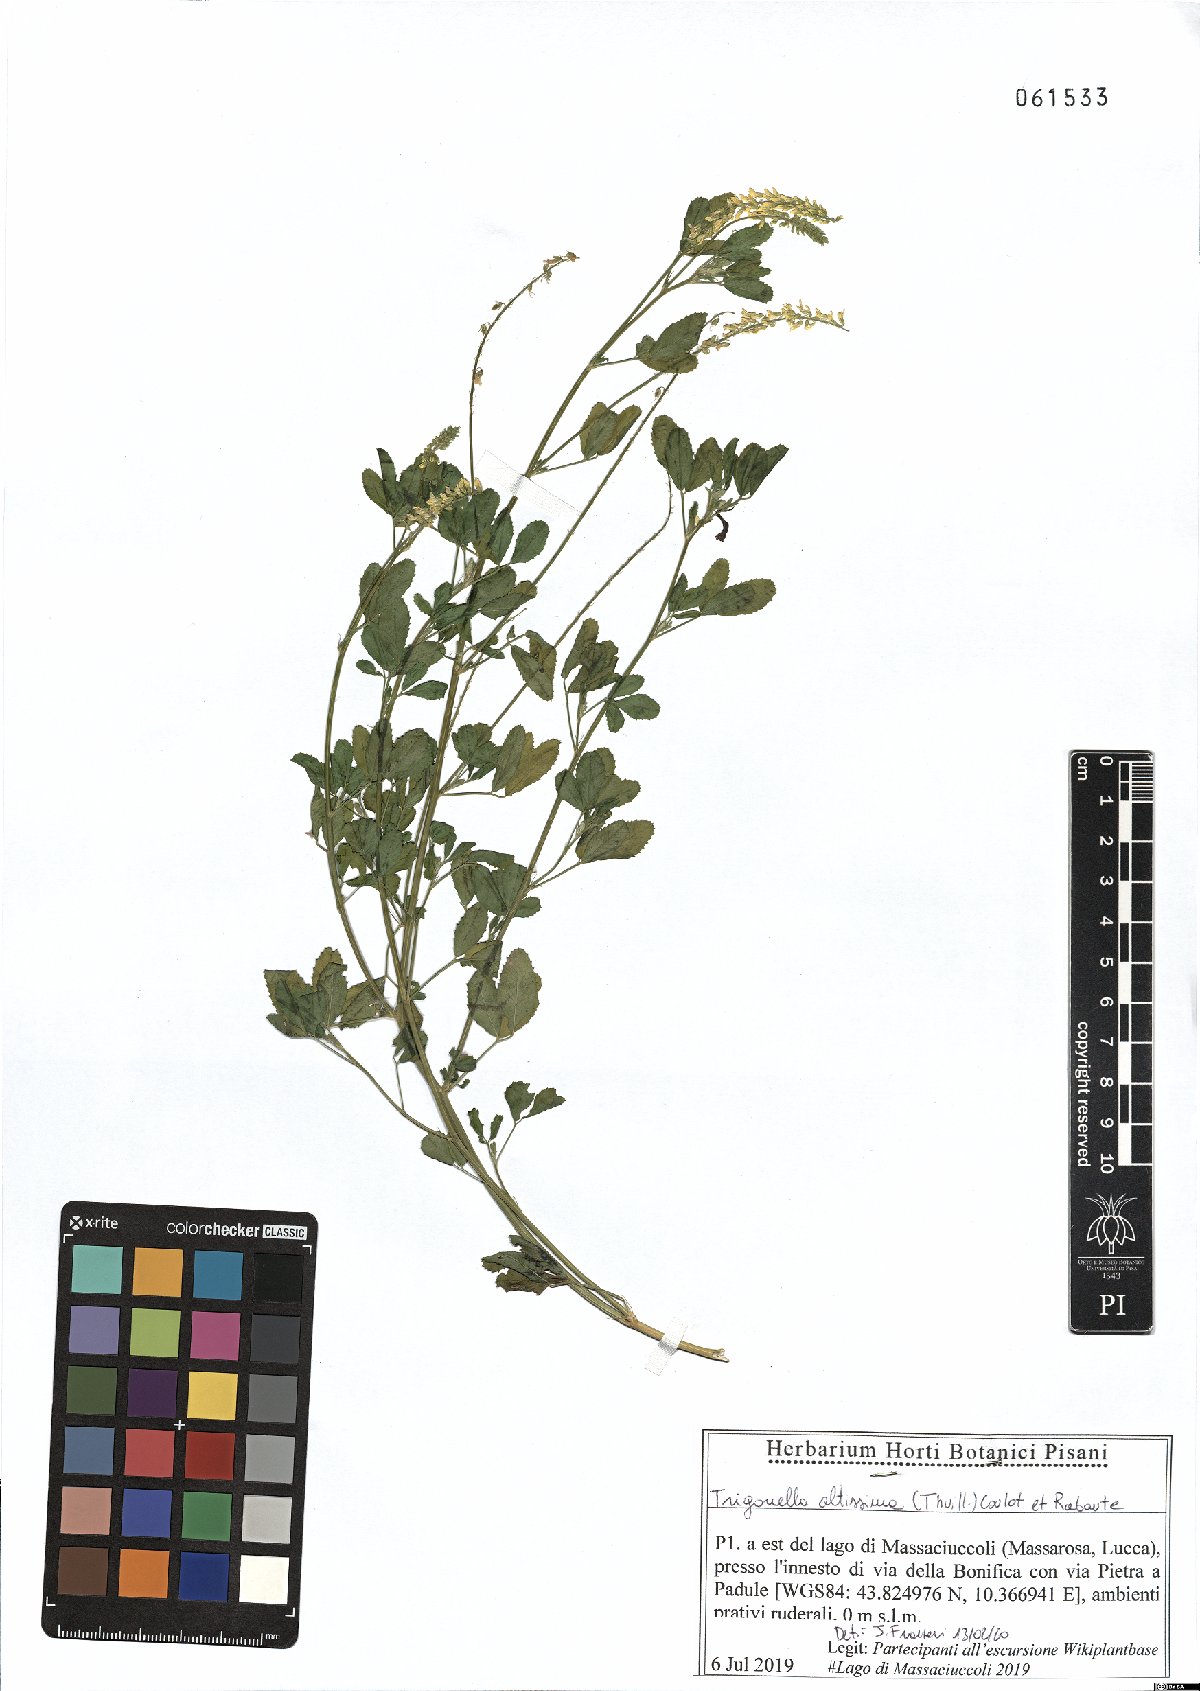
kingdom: Plantae
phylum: Tracheophyta
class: Magnoliopsida
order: Fabales
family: Fabaceae
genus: Melilotus
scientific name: Melilotus altissimus
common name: Tall melilot
